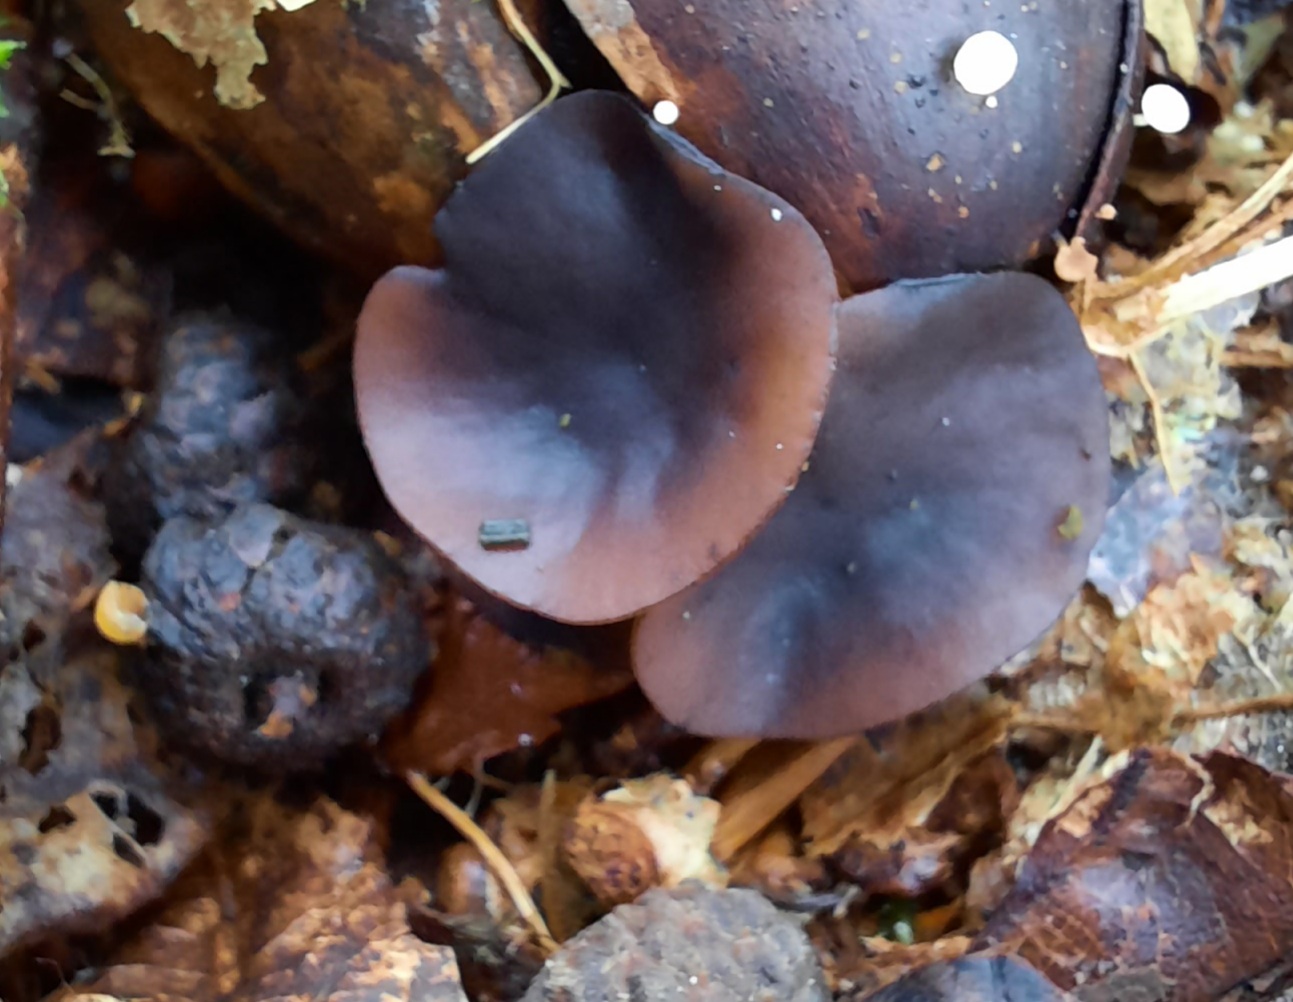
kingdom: Fungi
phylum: Ascomycota
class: Leotiomycetes
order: Helotiales
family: Sclerotiniaceae
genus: Ciboria
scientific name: Ciboria batschiana
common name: agern-knoldskive
